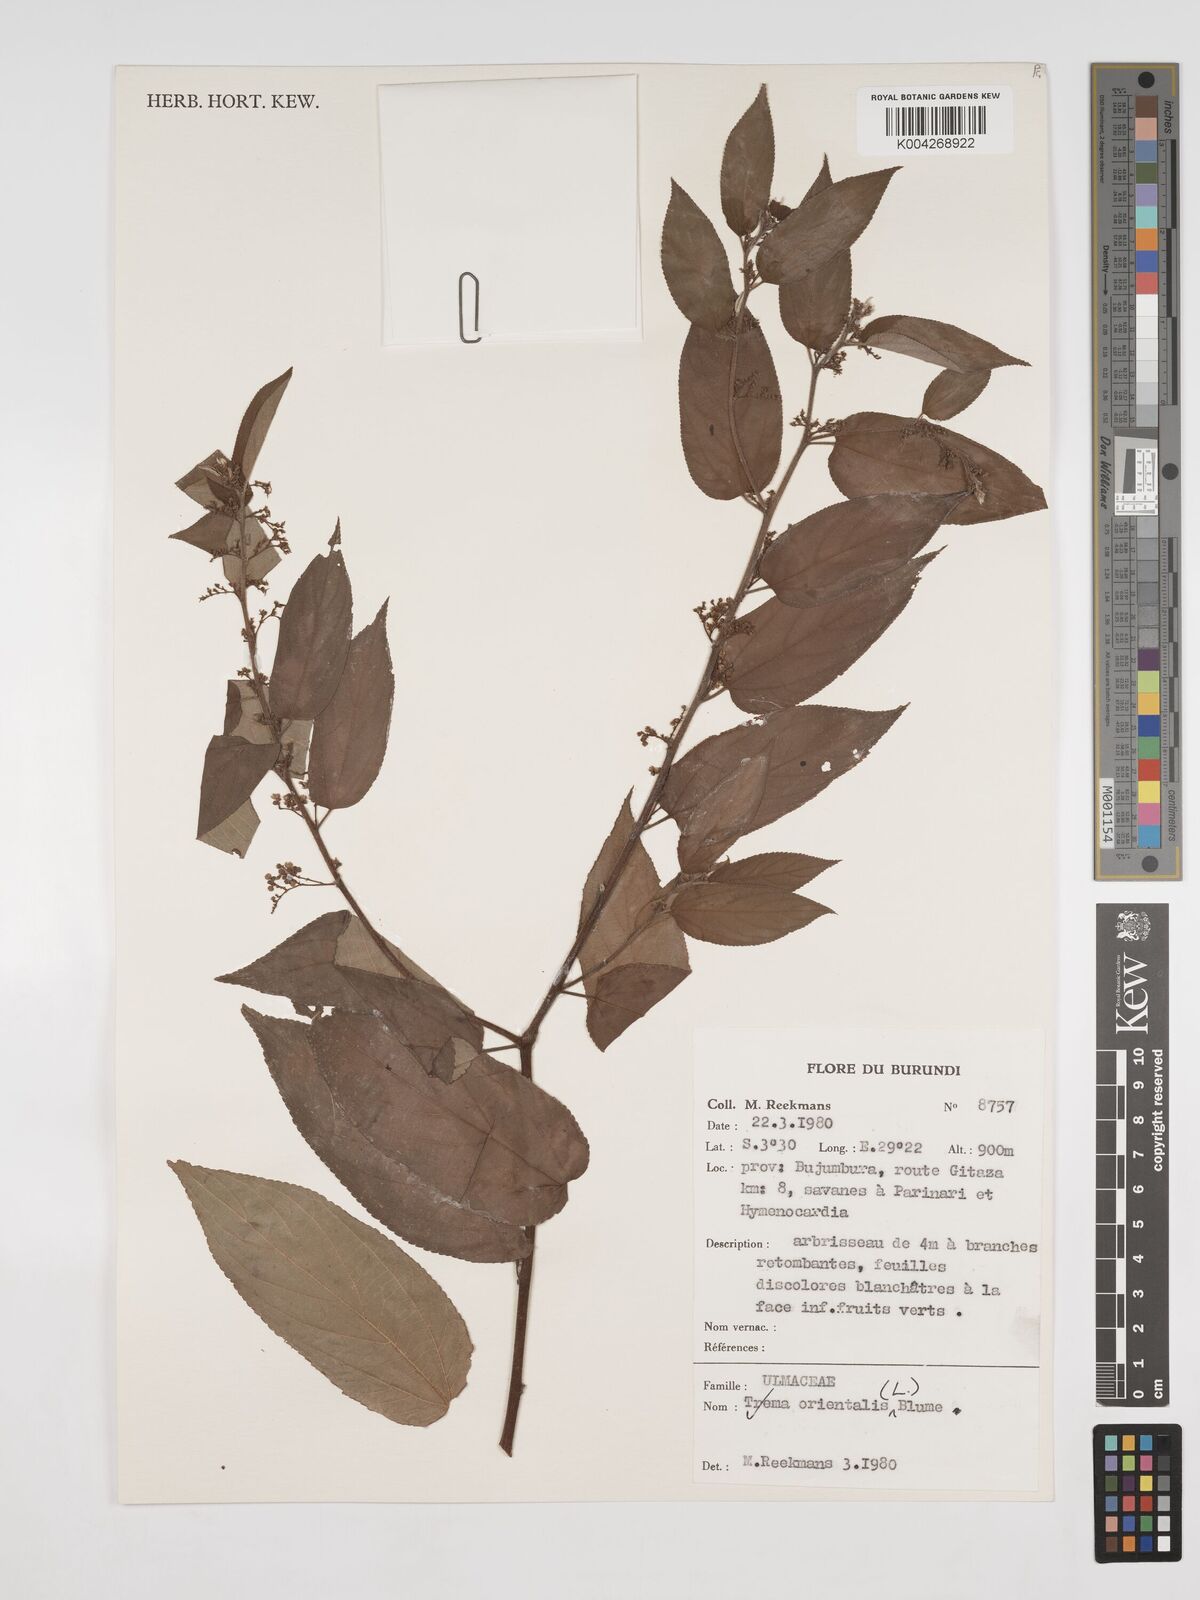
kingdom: Plantae
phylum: Tracheophyta
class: Magnoliopsida
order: Rosales
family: Cannabaceae
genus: Trema
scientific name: Trema orientale
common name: Indian charcoal tree
